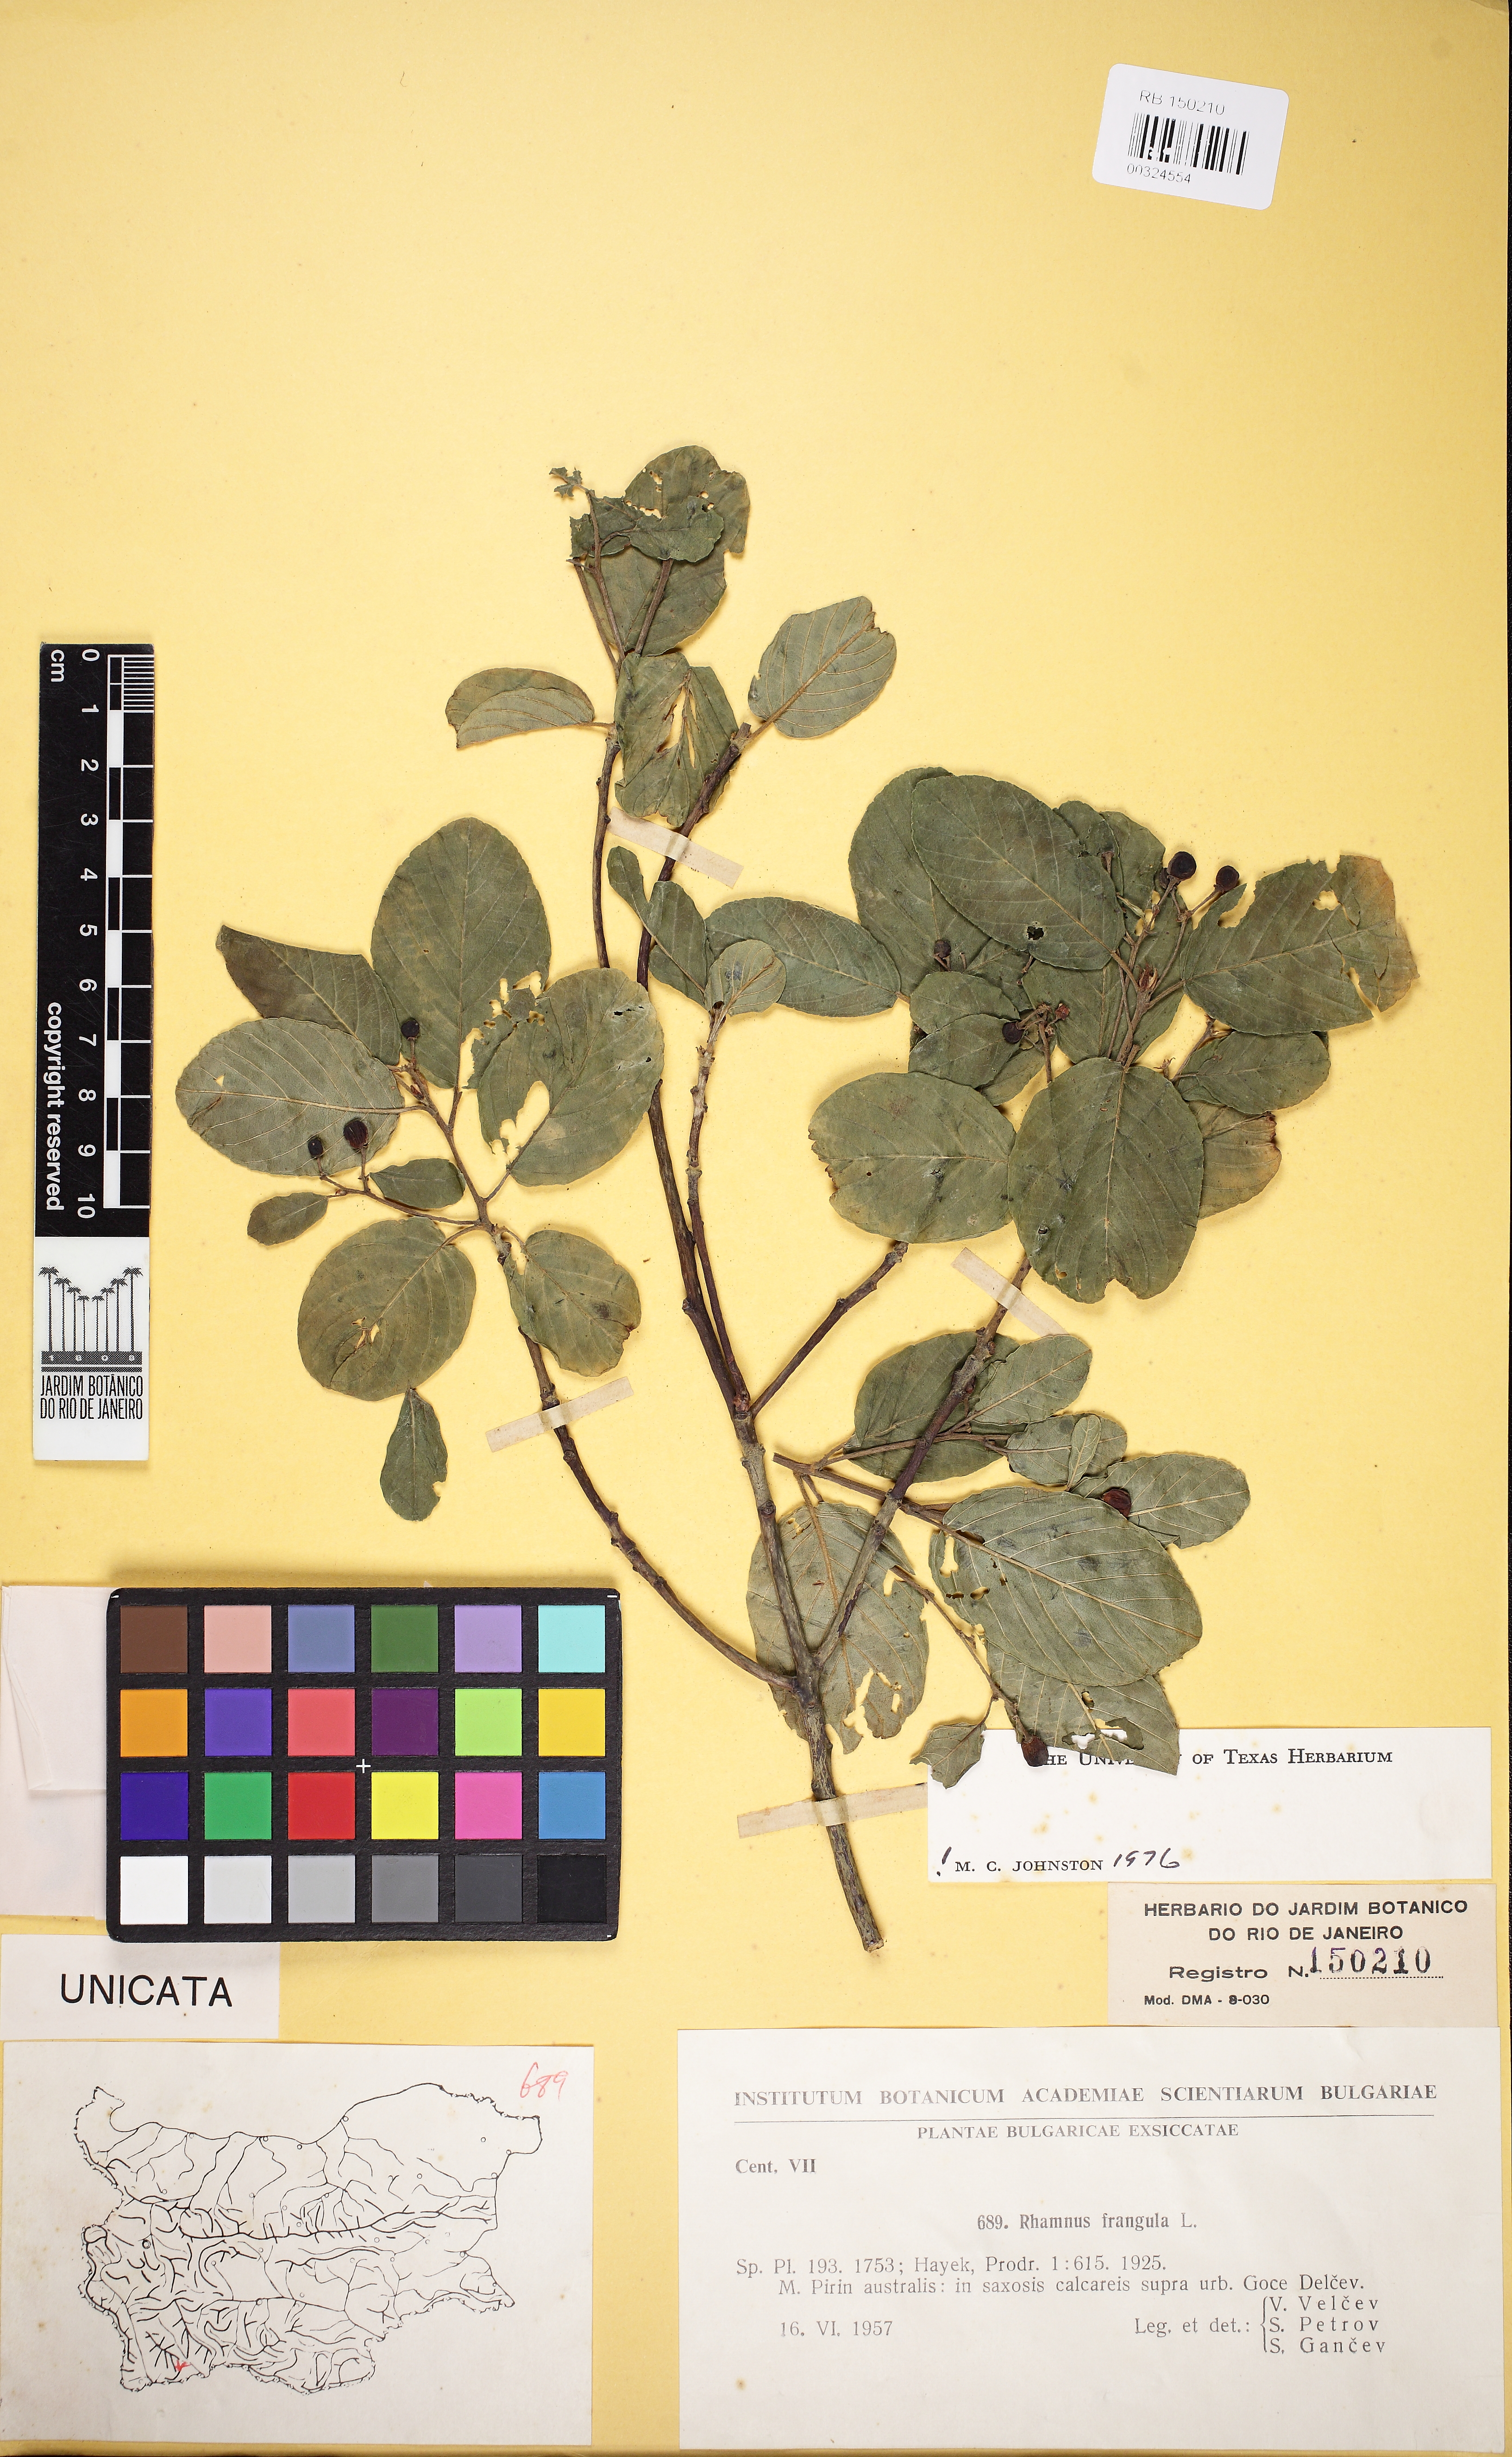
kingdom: Plantae
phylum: Tracheophyta
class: Magnoliopsida
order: Rosales
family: Rhamnaceae
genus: Frangula
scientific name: Frangula alnus
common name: Alder buckthorn
